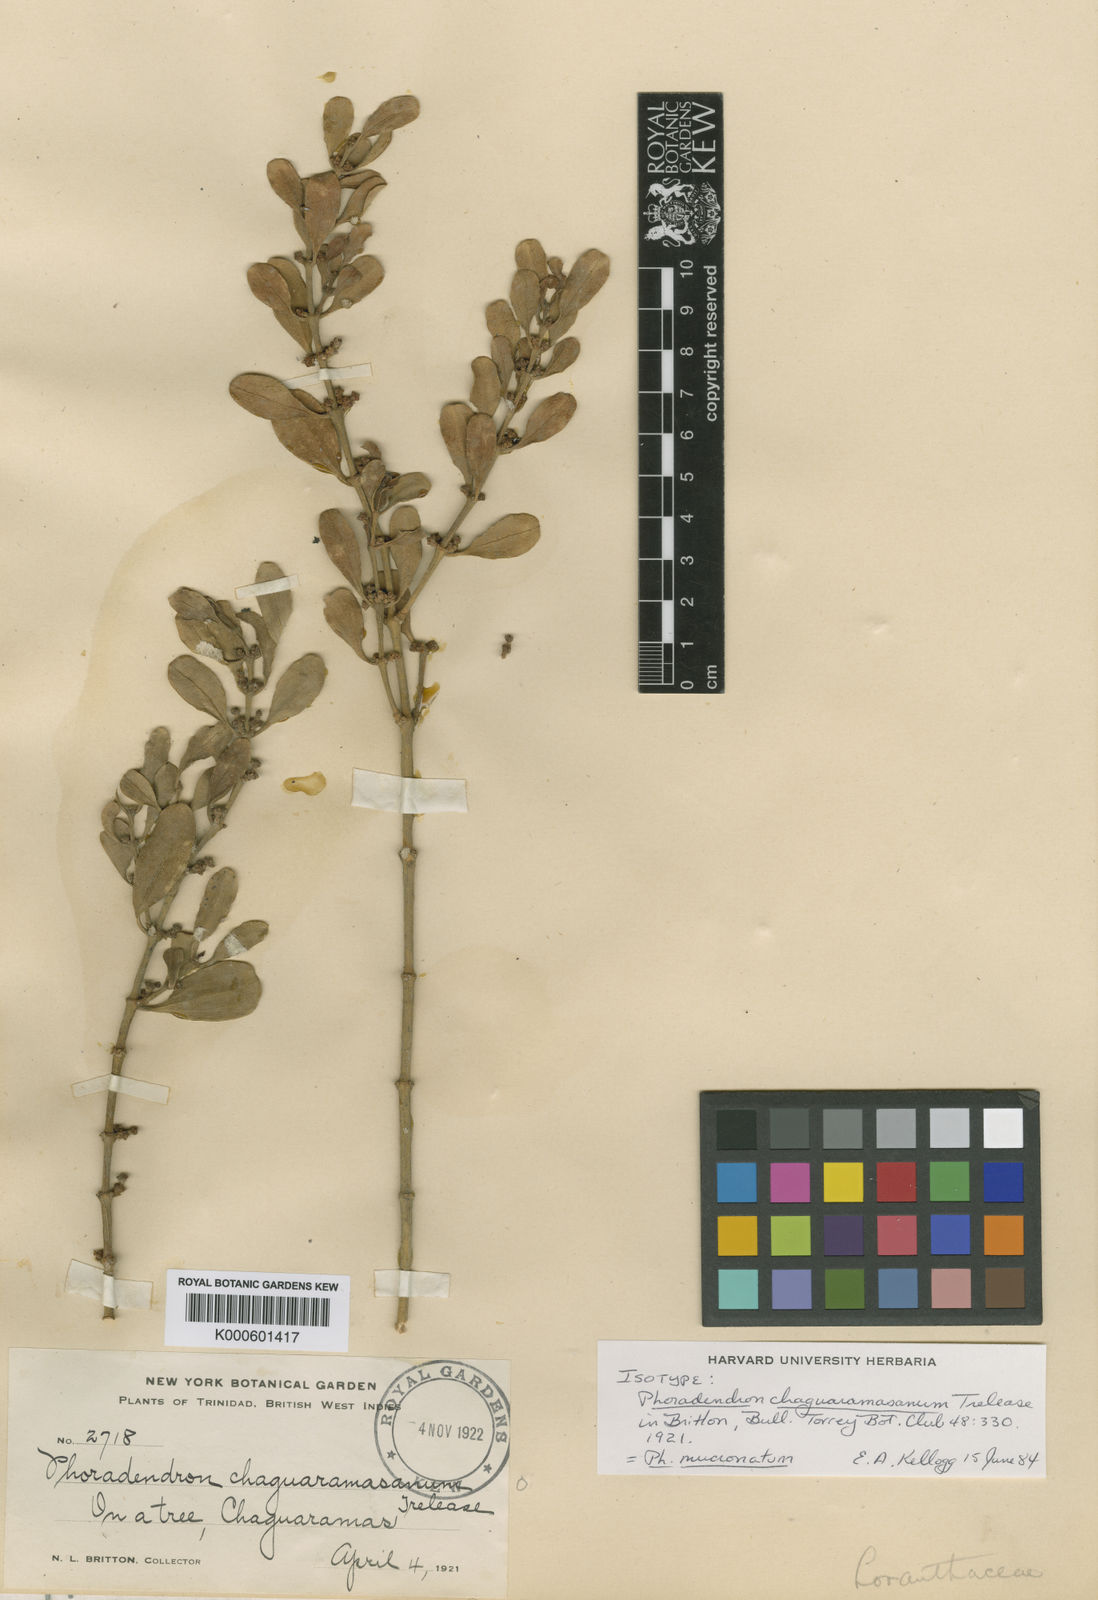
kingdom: Plantae
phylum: Tracheophyta
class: Magnoliopsida
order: Santalales
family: Viscaceae
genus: Phoradendron
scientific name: Phoradendron mucronatum
